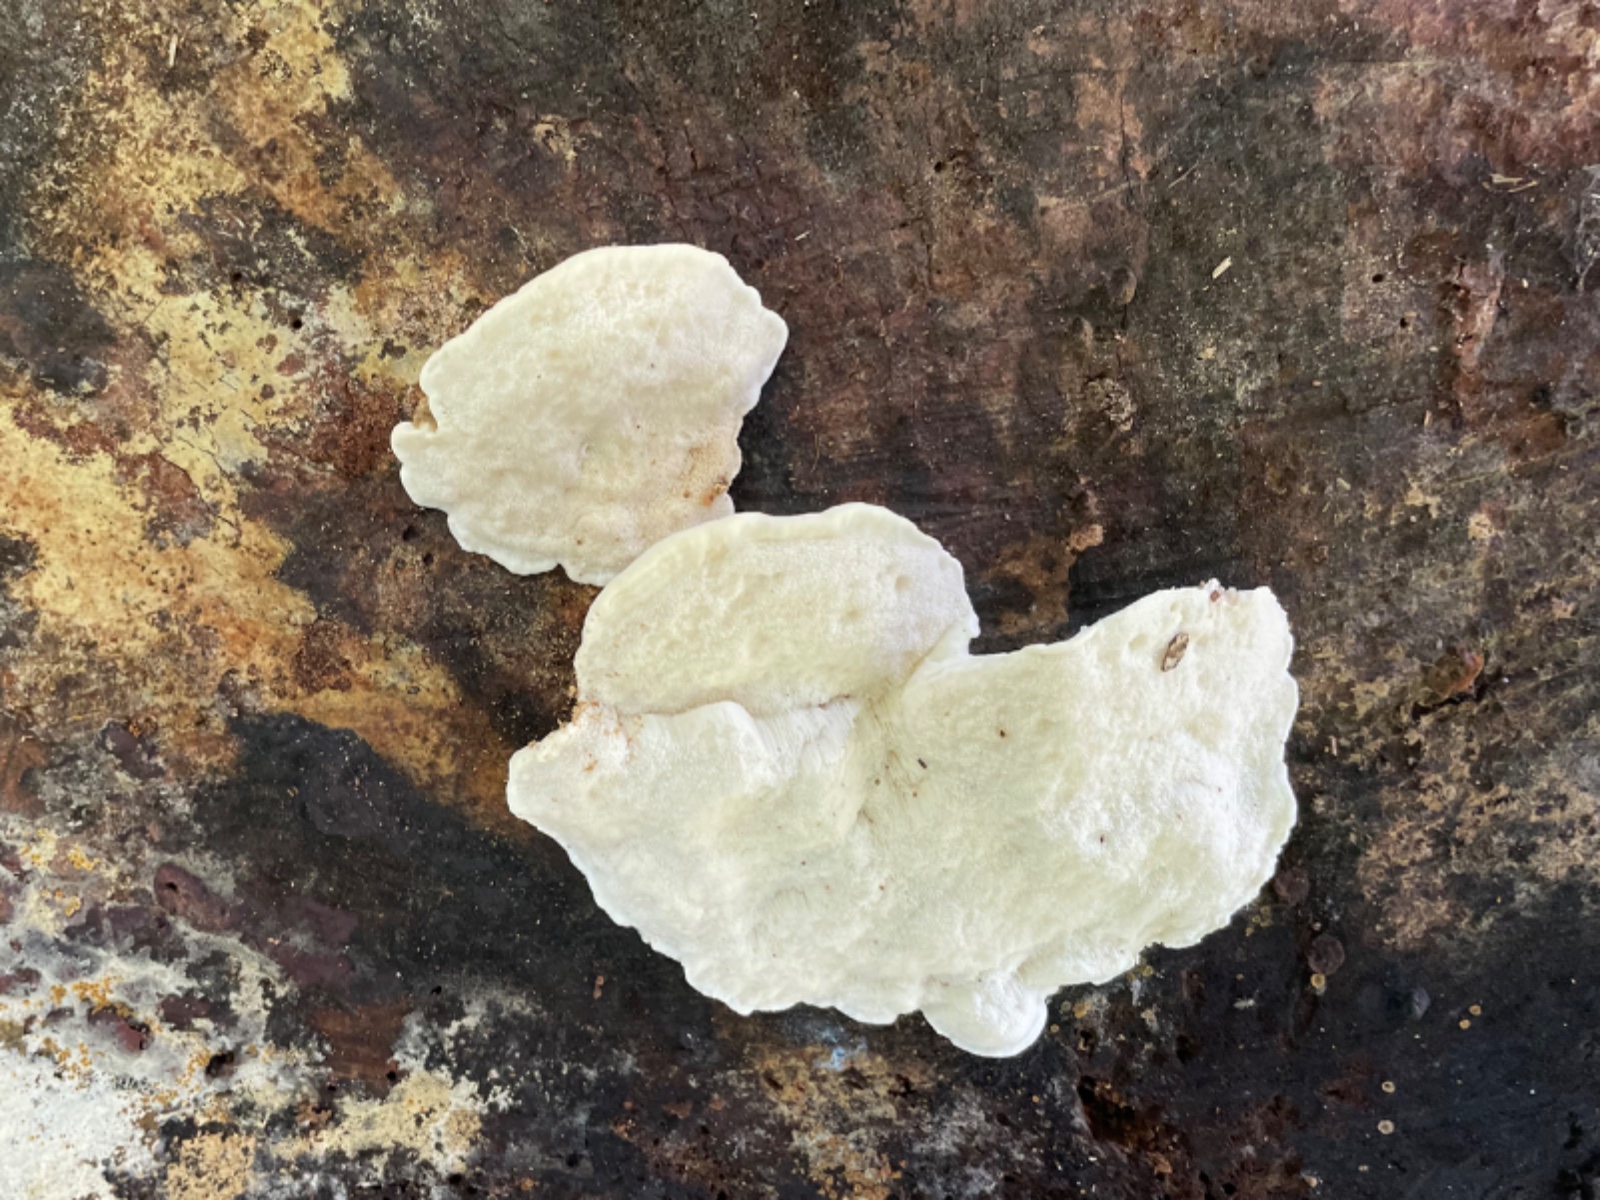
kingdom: Fungi
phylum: Basidiomycota
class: Agaricomycetes
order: Polyporales
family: Fomitopsidaceae
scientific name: Fomitopsidaceae
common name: hovporesvampfamilien
